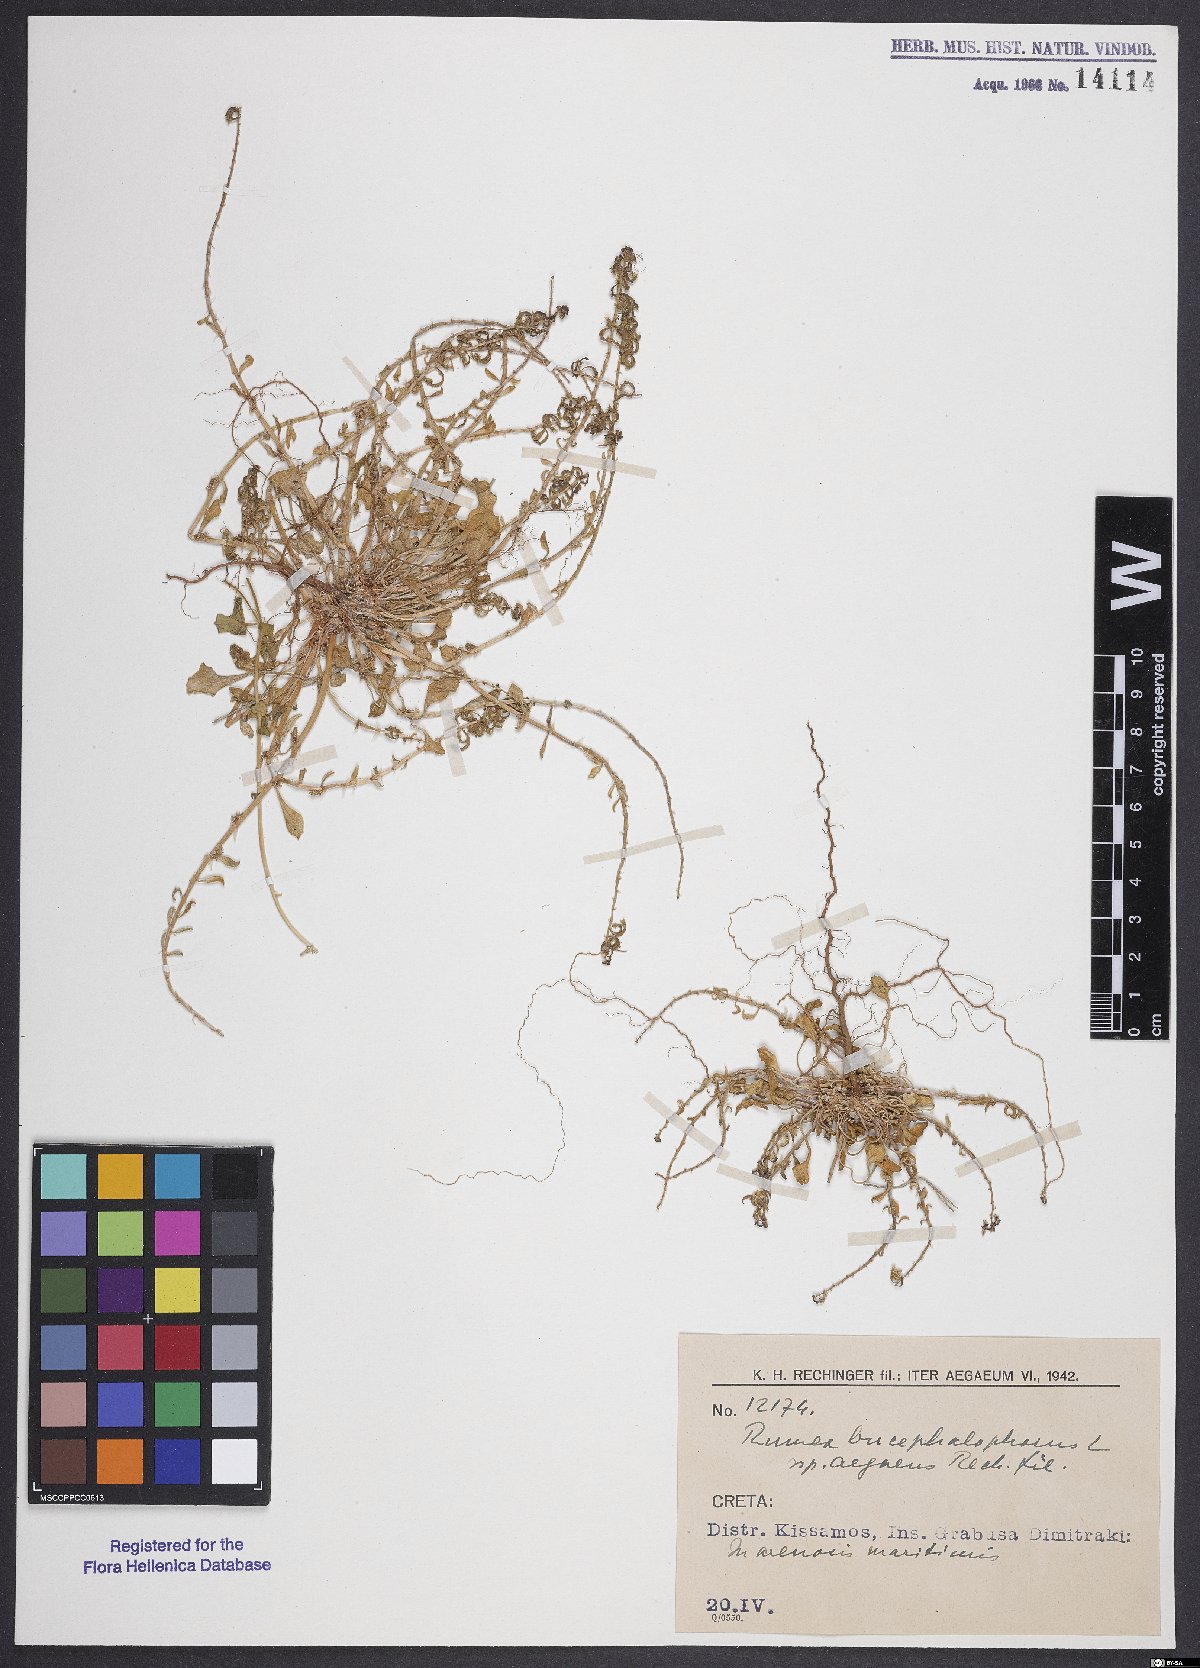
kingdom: Plantae
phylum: Tracheophyta
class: Magnoliopsida
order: Caryophyllales
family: Polygonaceae
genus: Rumex
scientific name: Rumex bucephalophorus
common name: Red dock
